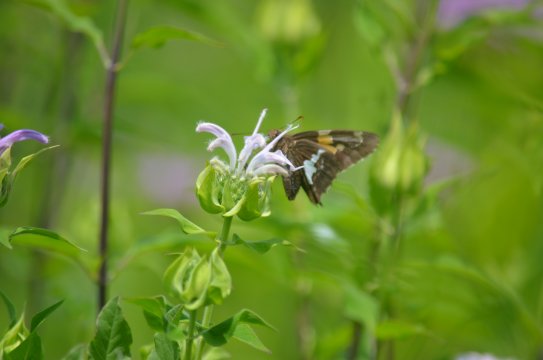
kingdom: Animalia
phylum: Arthropoda
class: Insecta
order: Lepidoptera
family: Hesperiidae
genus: Epargyreus
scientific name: Epargyreus clarus
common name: Silver-spotted Skipper
